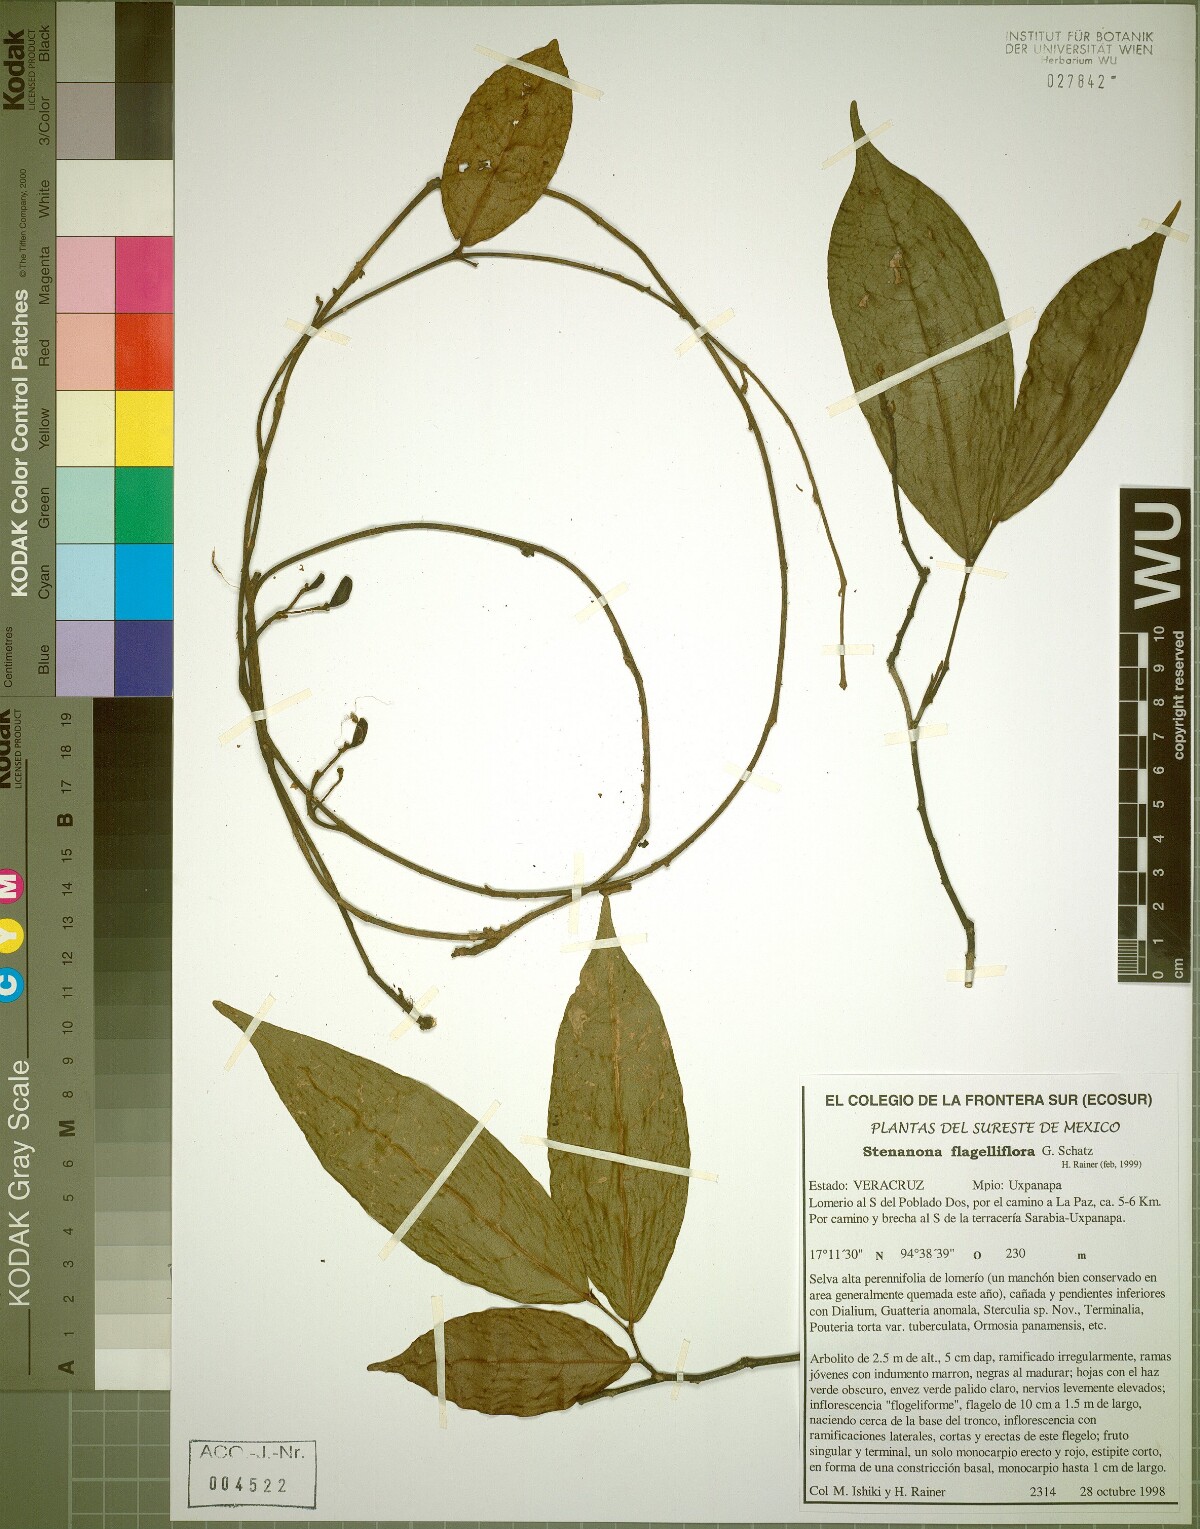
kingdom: Plantae
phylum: Tracheophyta
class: Magnoliopsida
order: Magnoliales
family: Annonaceae
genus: Stenanona
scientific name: Stenanona flagelliflora
